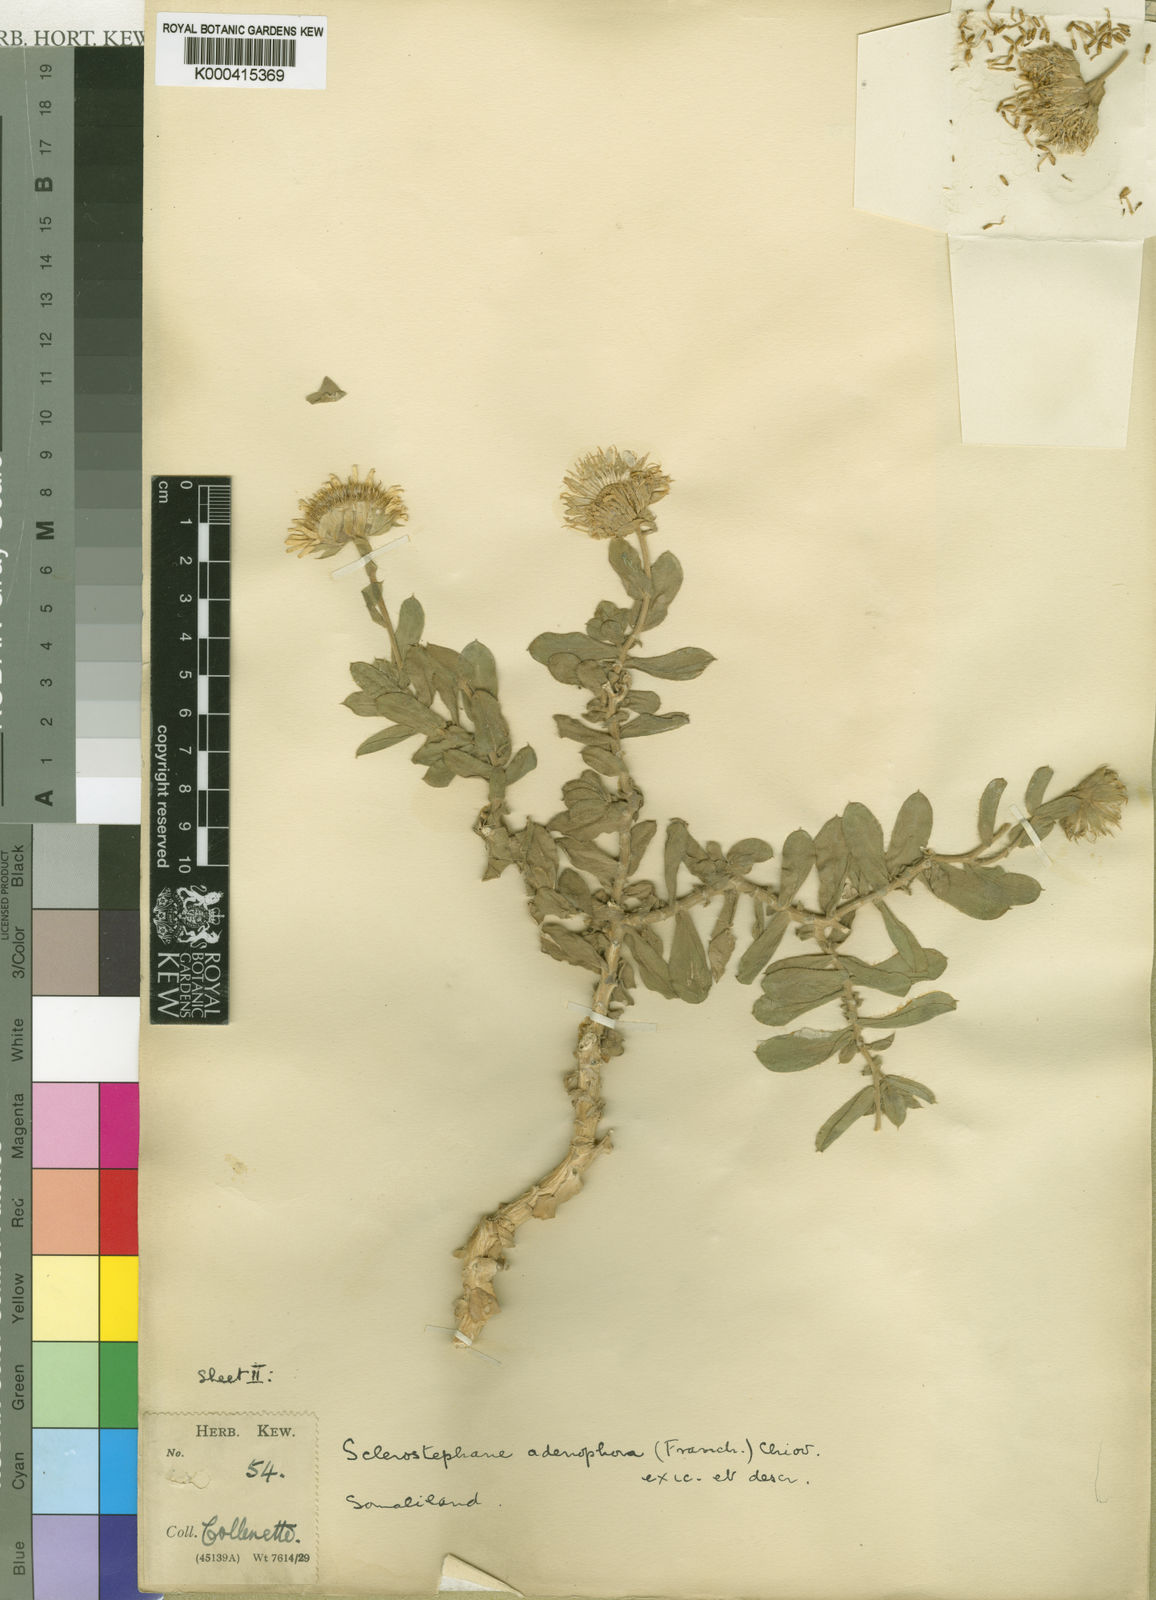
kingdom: Plantae
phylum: Tracheophyta
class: Magnoliopsida
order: Asterales
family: Asteraceae
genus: Pulicaria
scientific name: Pulicaria collenettei
